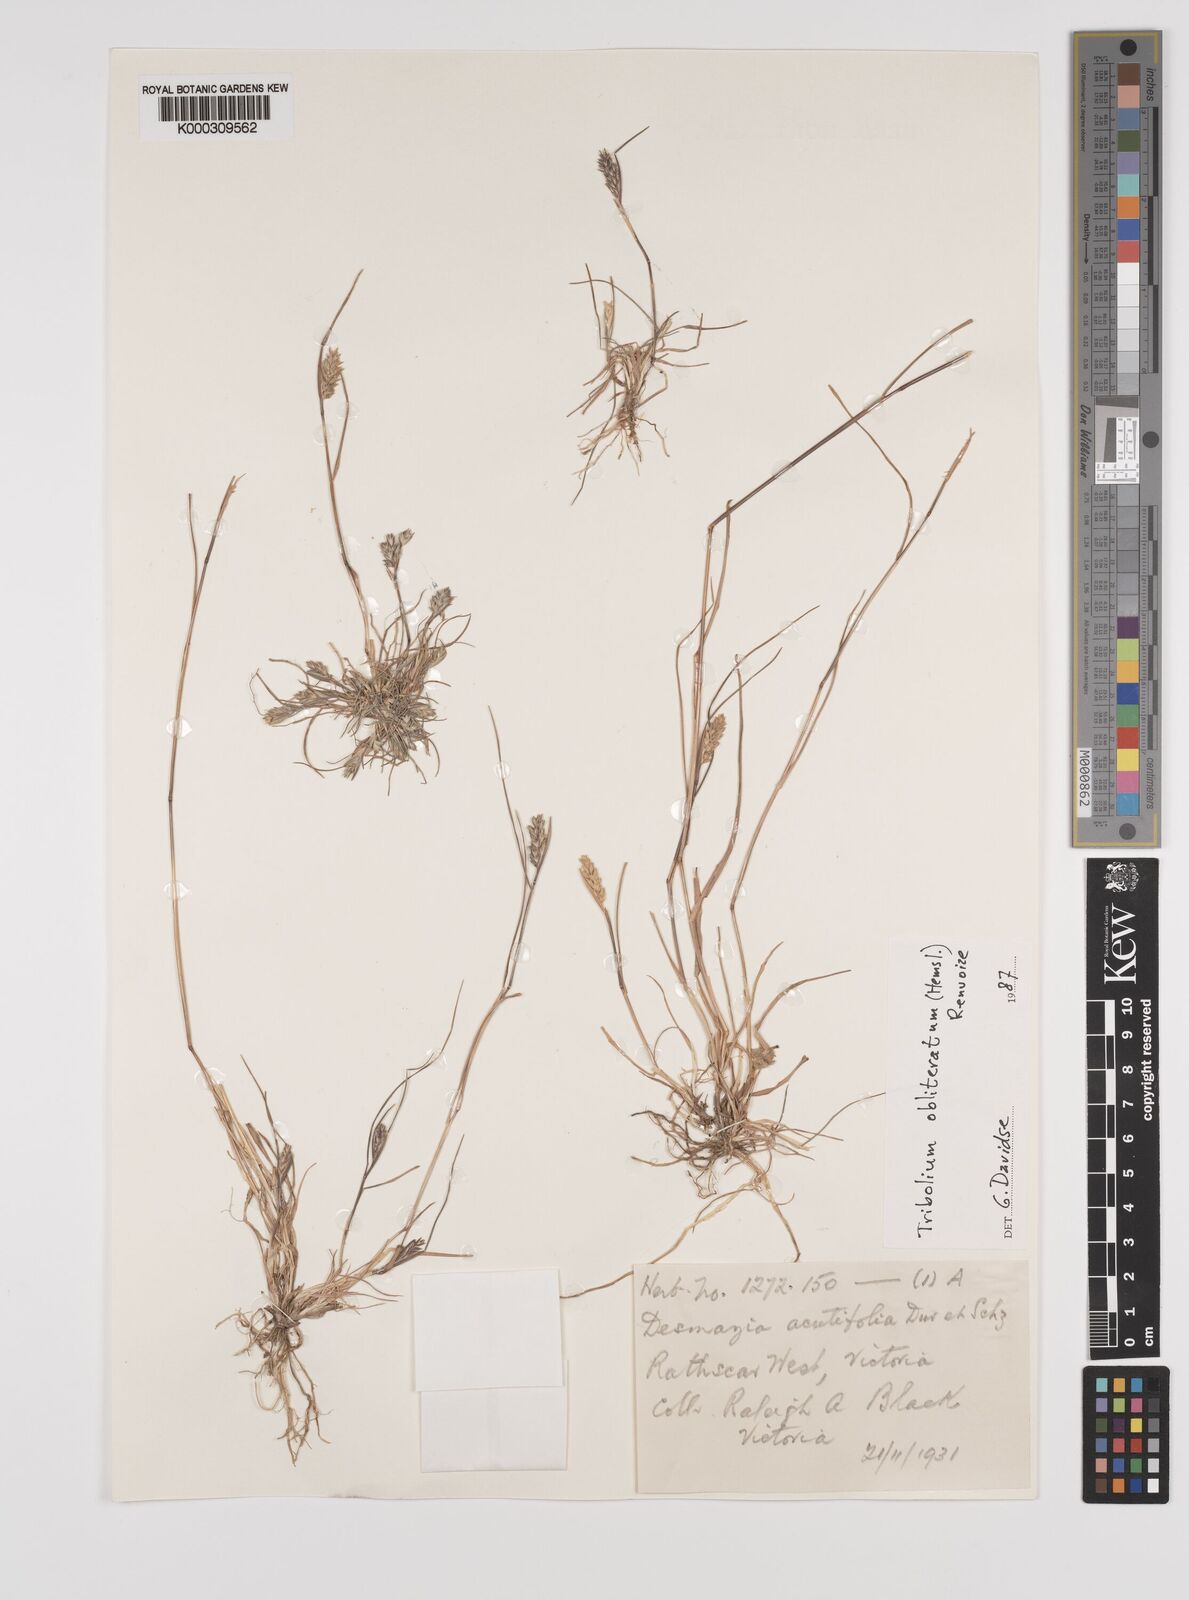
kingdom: Plantae
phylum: Tracheophyta
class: Liliopsida
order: Poales
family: Poaceae
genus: Tribolium
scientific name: Tribolium obliterum
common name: Capetown grass
